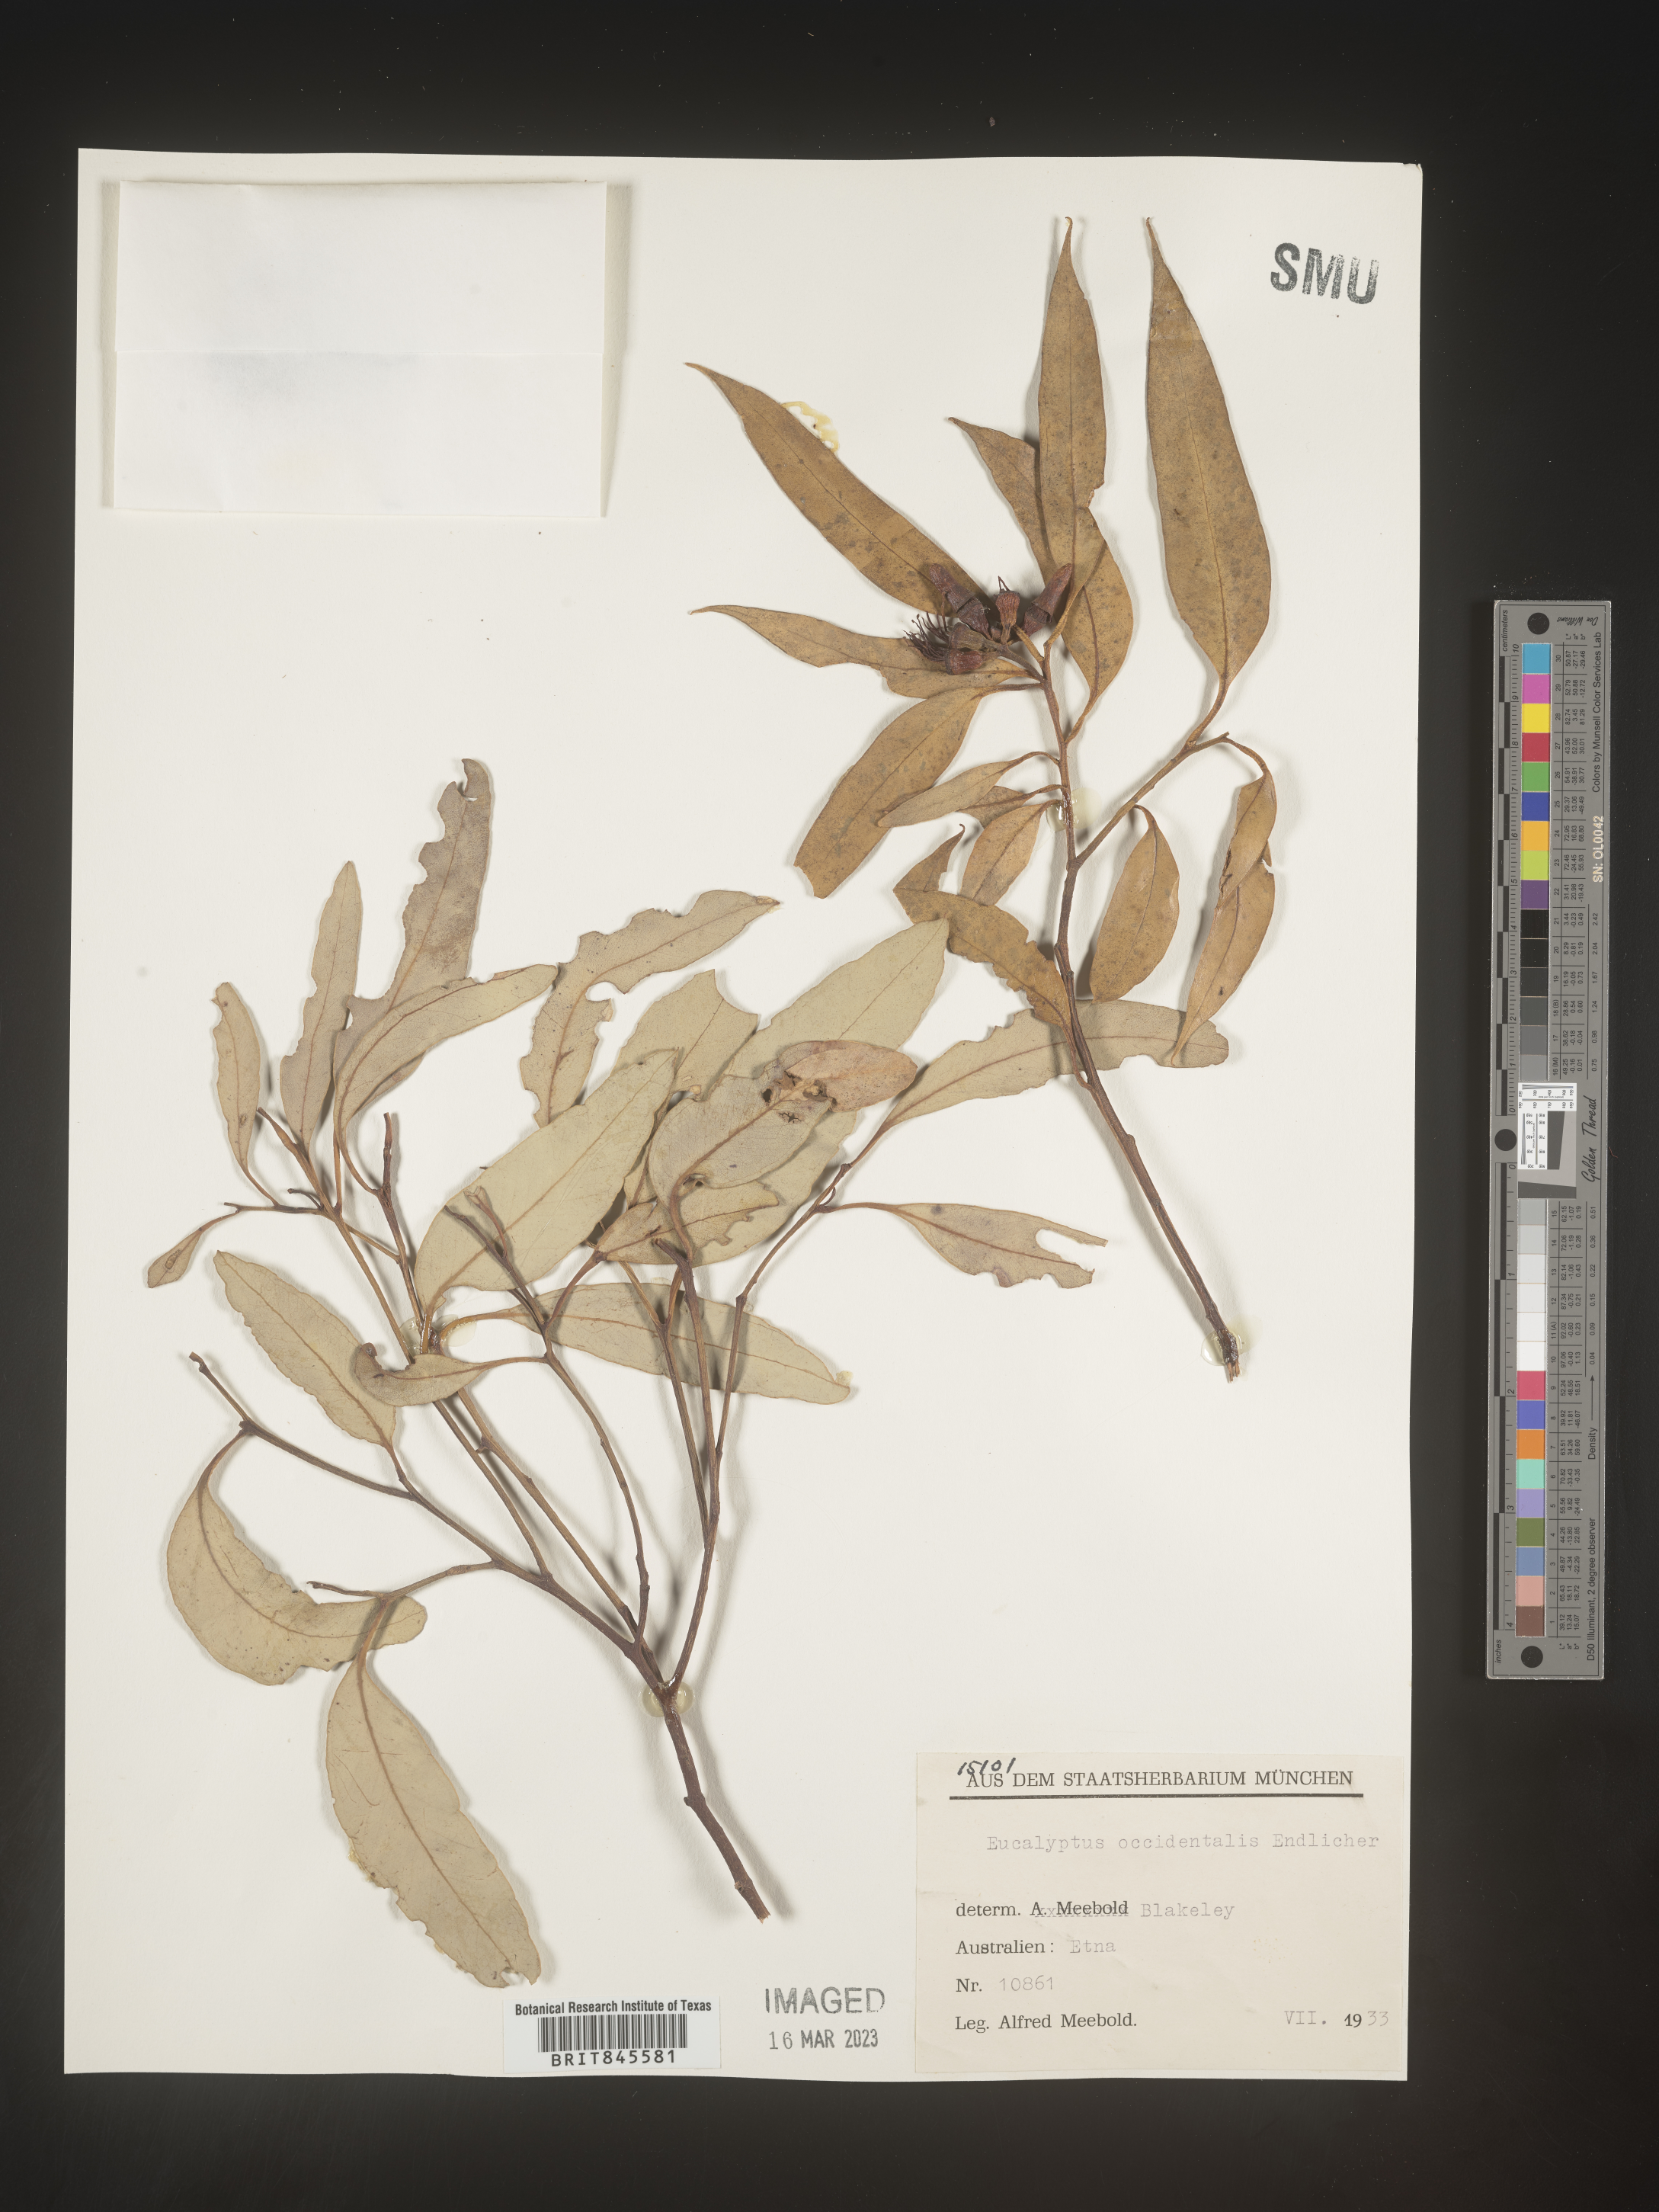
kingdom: Plantae
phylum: Tracheophyta
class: Magnoliopsida
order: Myrtales
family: Myrtaceae
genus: Eucalyptus
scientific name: Eucalyptus
